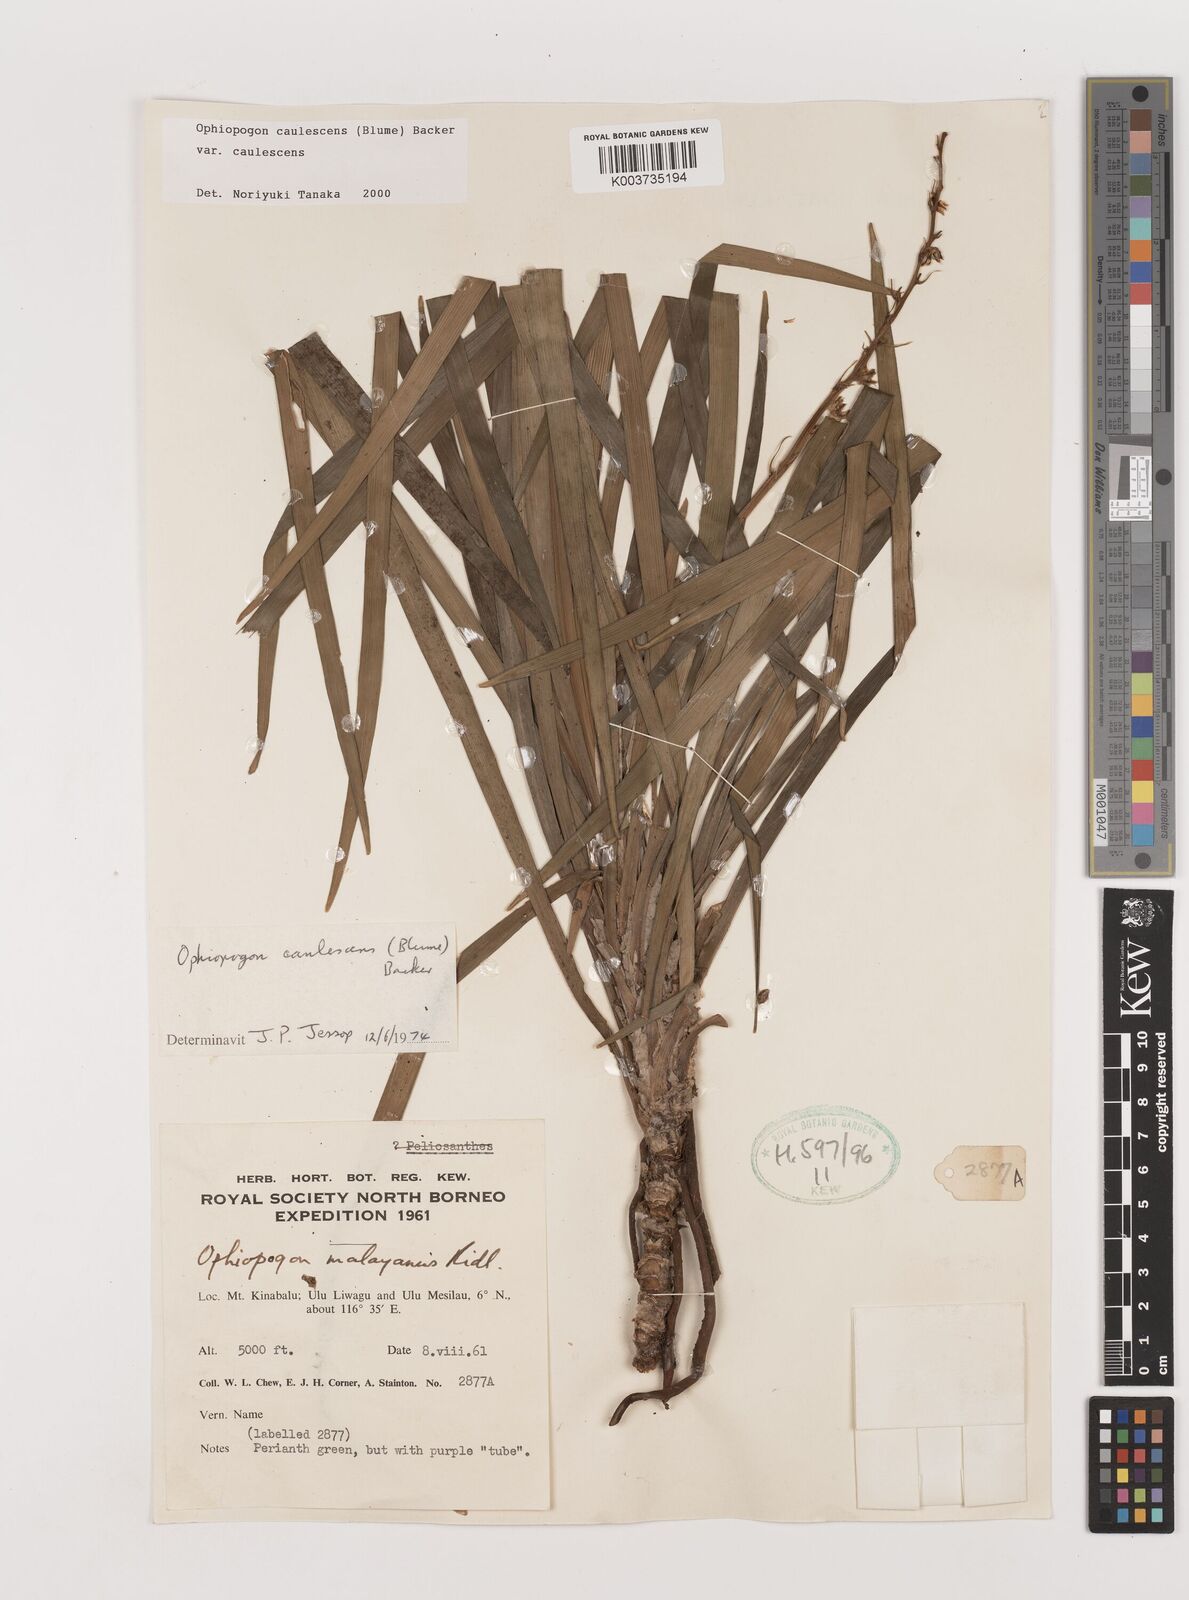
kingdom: Plantae
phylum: Tracheophyta
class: Liliopsida
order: Asparagales
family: Asparagaceae
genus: Ophiopogon
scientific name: Ophiopogon caulescens
